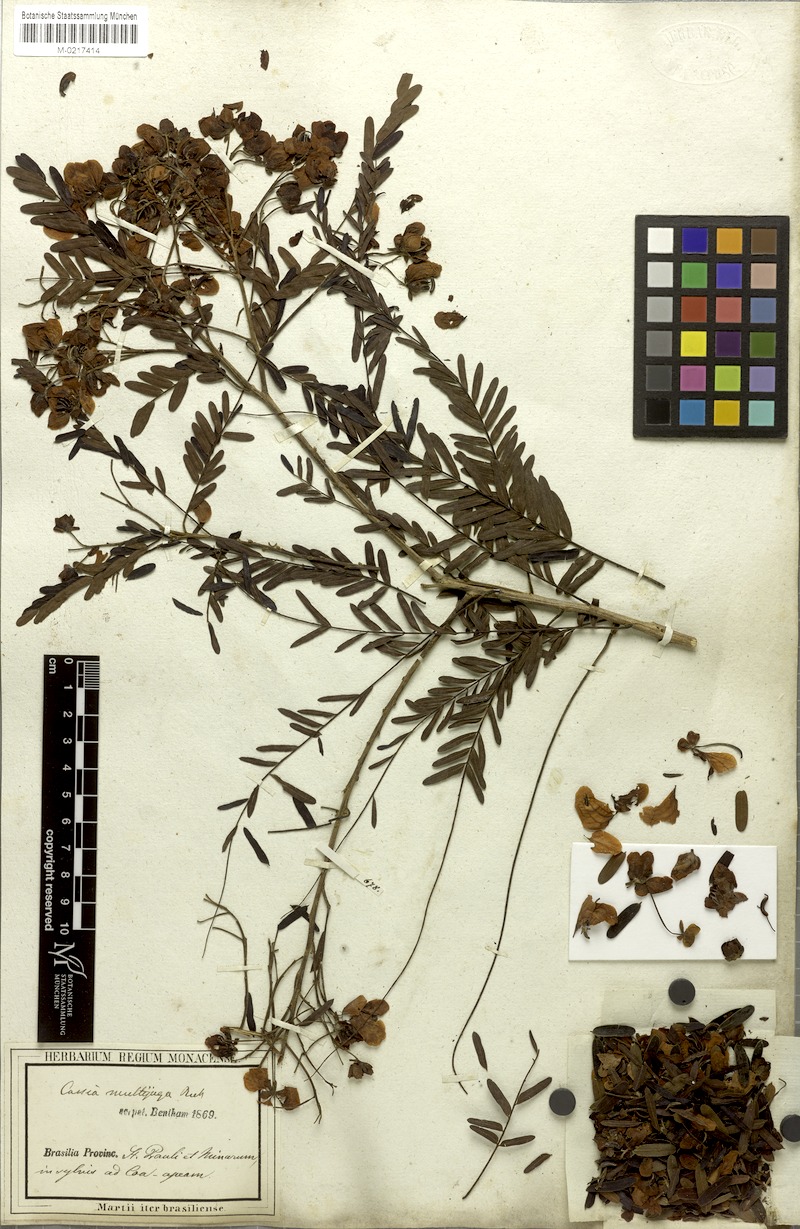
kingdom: Plantae
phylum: Tracheophyta
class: Magnoliopsida
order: Fabales
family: Fabaceae
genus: Senna
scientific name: Senna multijuga
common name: False sicklepod
